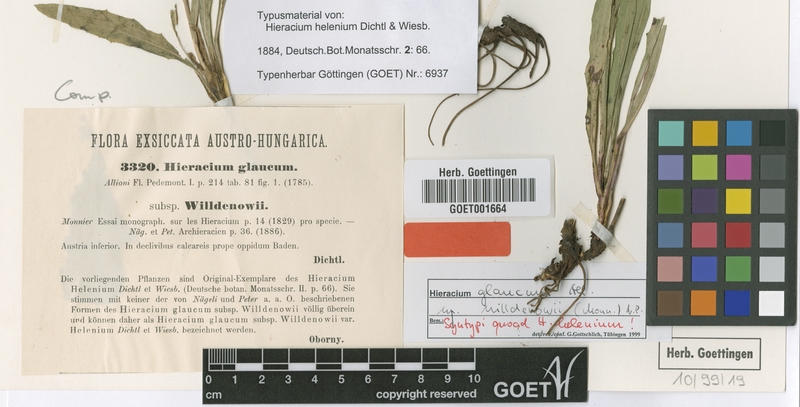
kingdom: Plantae
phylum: Tracheophyta
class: Magnoliopsida
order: Asterales
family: Asteraceae
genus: Hieracium
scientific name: Hieracium glaucum
